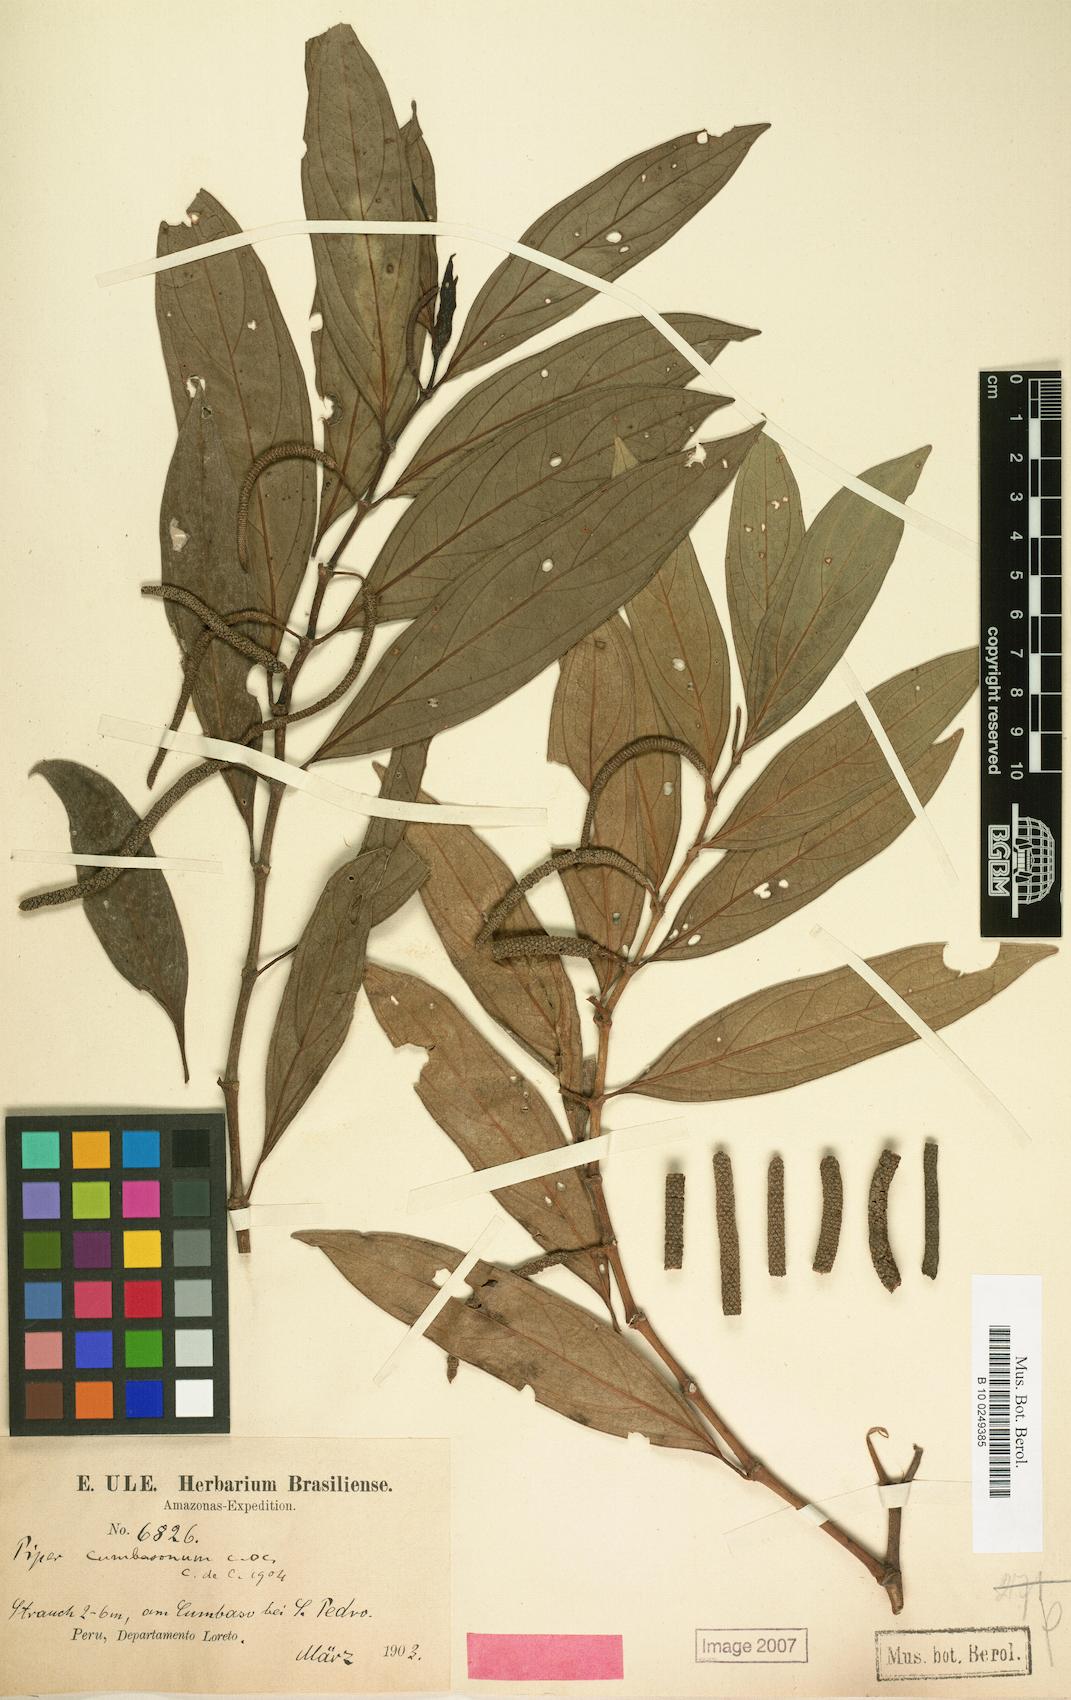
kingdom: Plantae
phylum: Tracheophyta
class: Magnoliopsida
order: Piperales
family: Piperaceae
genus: Piper
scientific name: Piper cumbasonum
